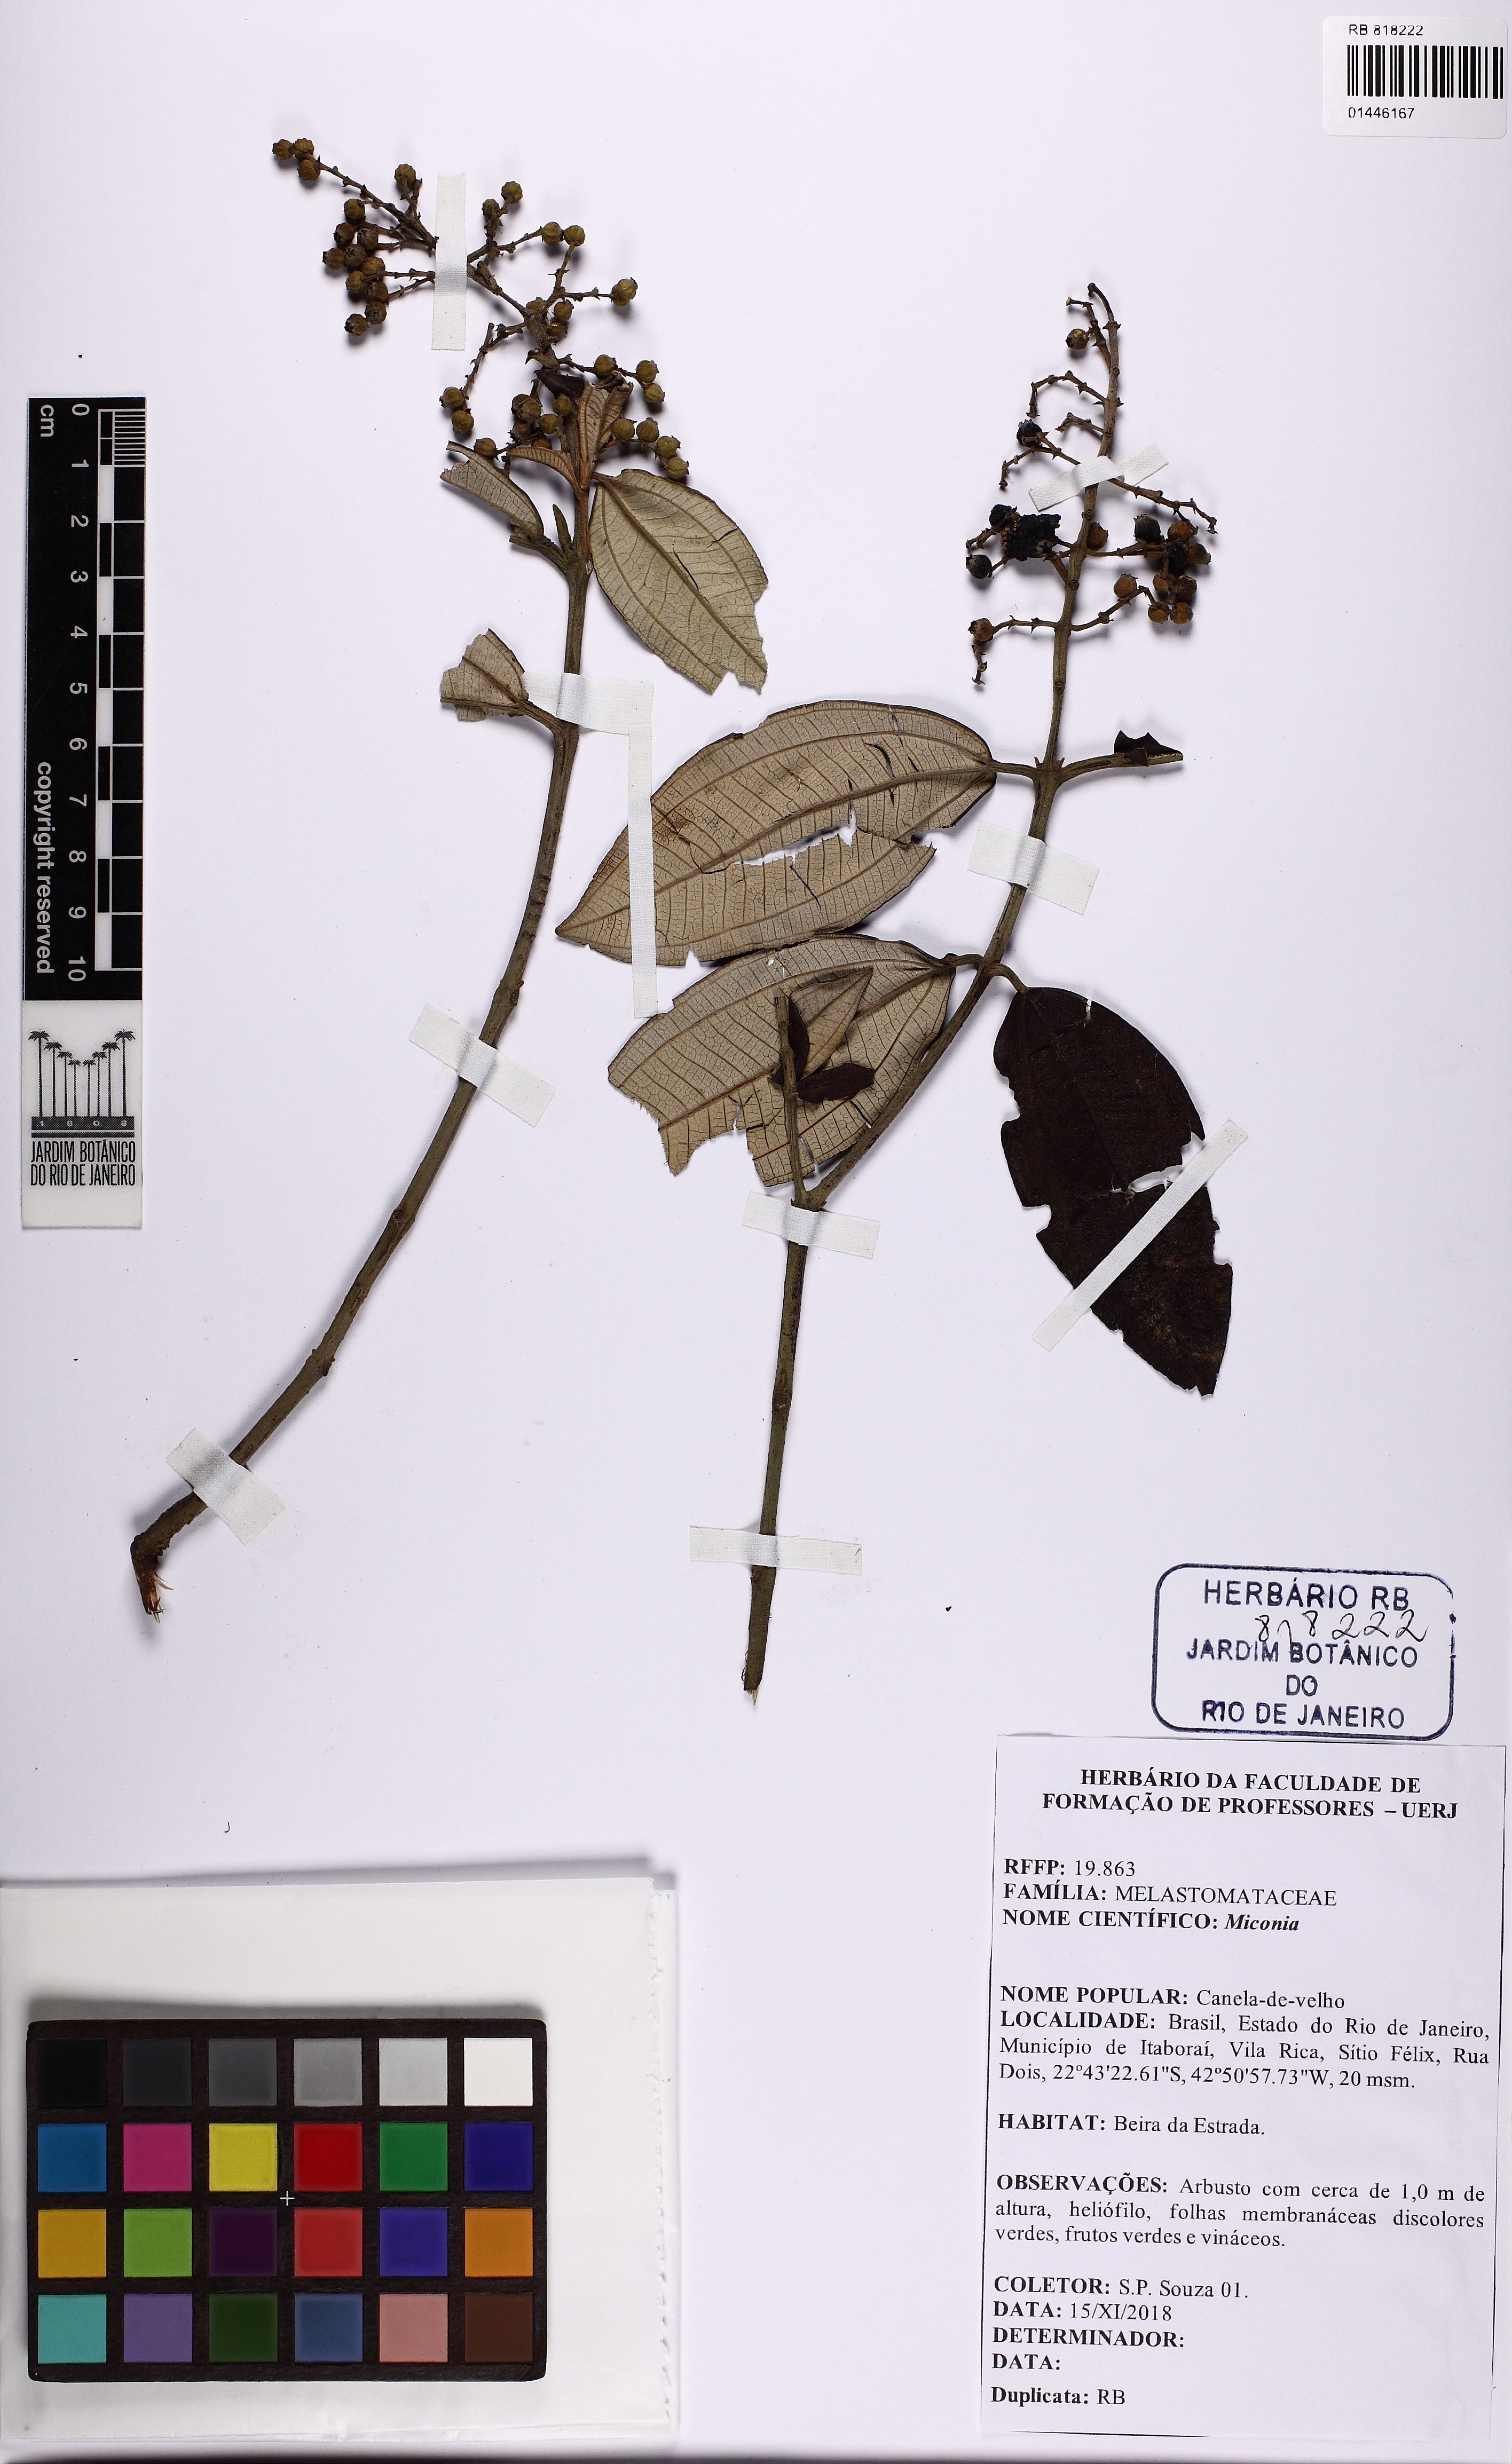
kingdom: Plantae
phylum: Tracheophyta
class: Magnoliopsida
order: Myrtales
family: Melastomataceae
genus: Miconia
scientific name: Miconia
